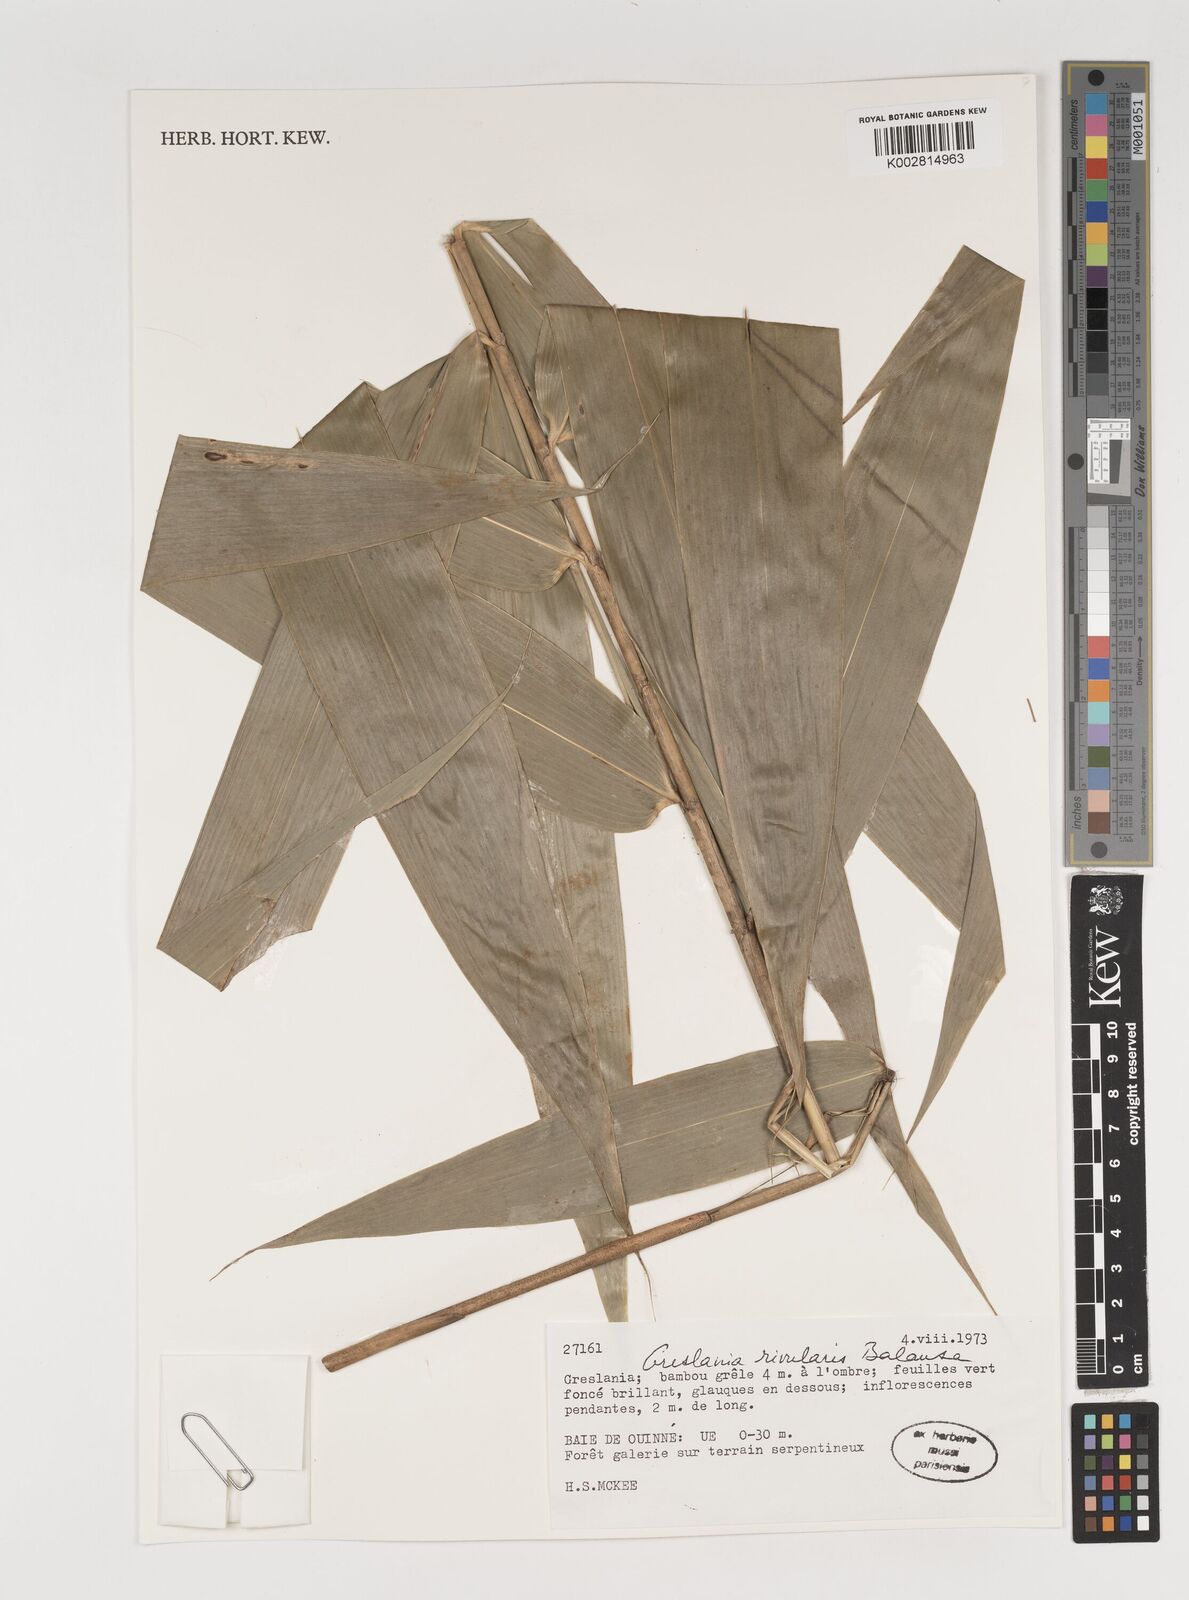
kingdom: Plantae
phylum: Tracheophyta
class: Liliopsida
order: Poales
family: Poaceae
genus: Greslania
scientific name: Greslania rivularis
